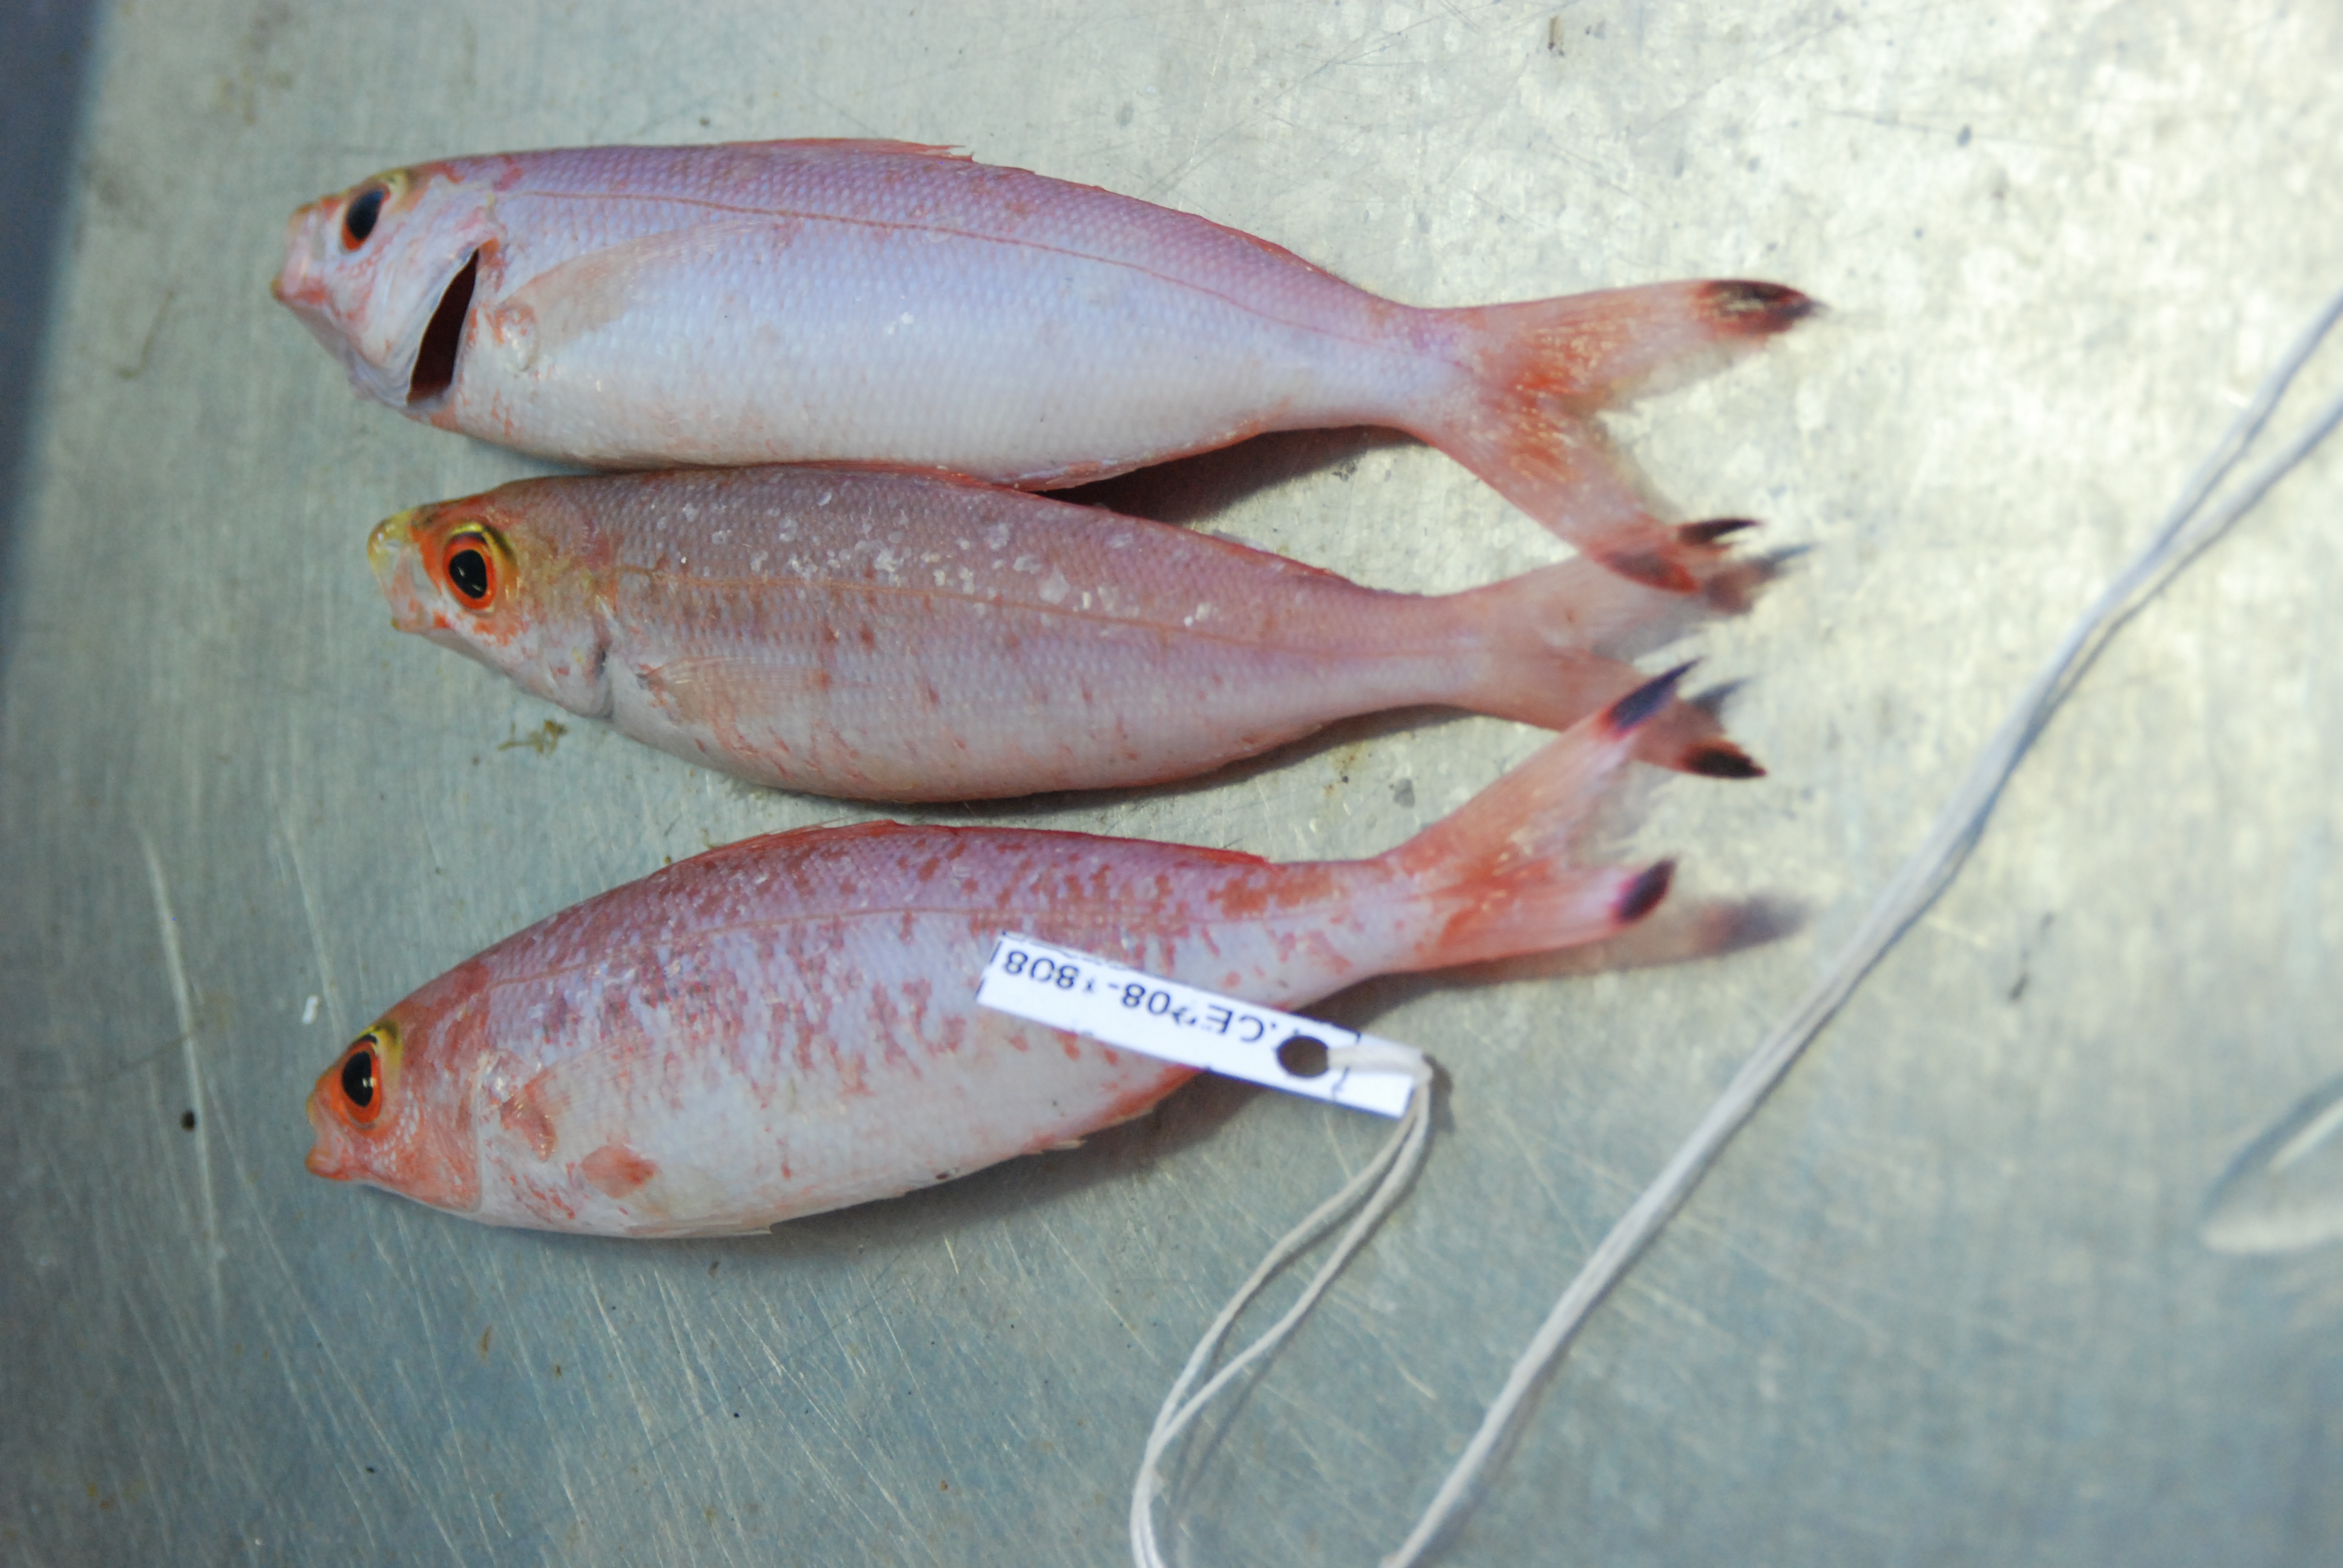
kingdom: Animalia
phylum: Chordata
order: Perciformes
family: Caesionidae
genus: Pterocaesio
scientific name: Pterocaesio pisang
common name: Banana fusilier
